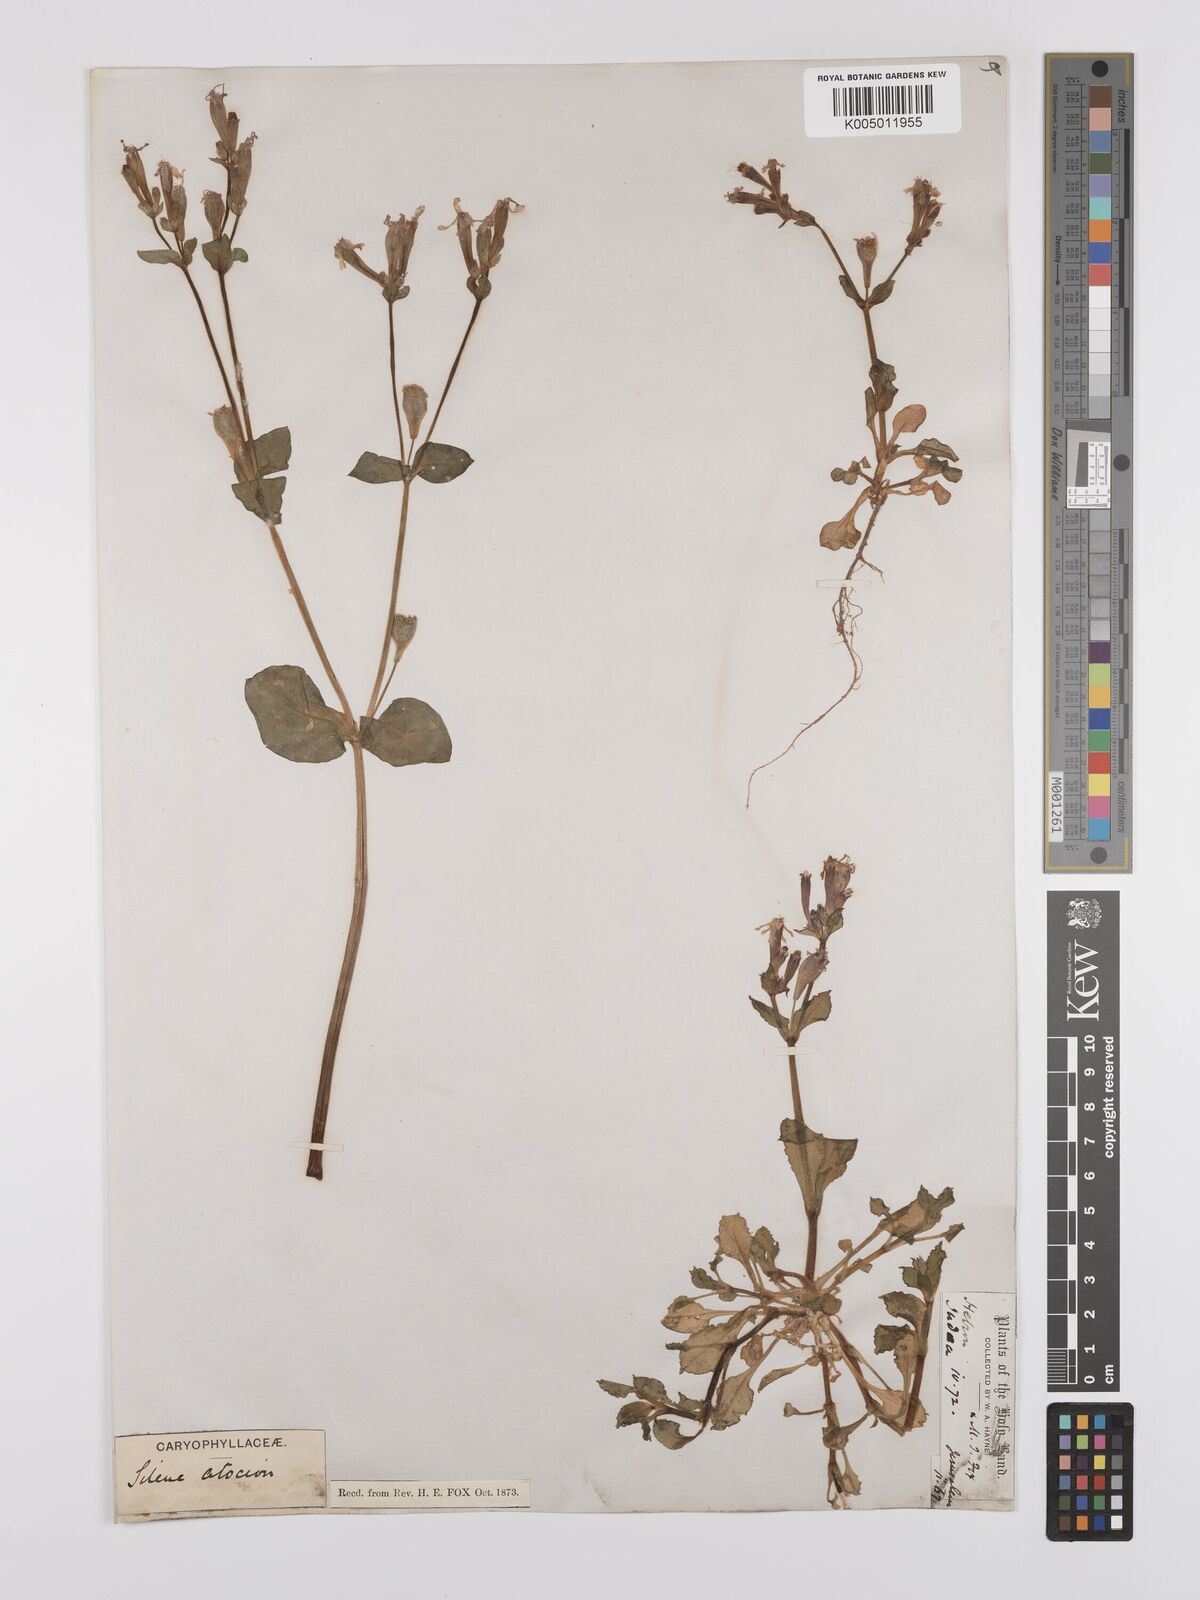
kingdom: Plantae
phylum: Tracheophyta
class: Magnoliopsida
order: Caryophyllales
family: Caryophyllaceae
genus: Silene
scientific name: Silene aegyptiaca
